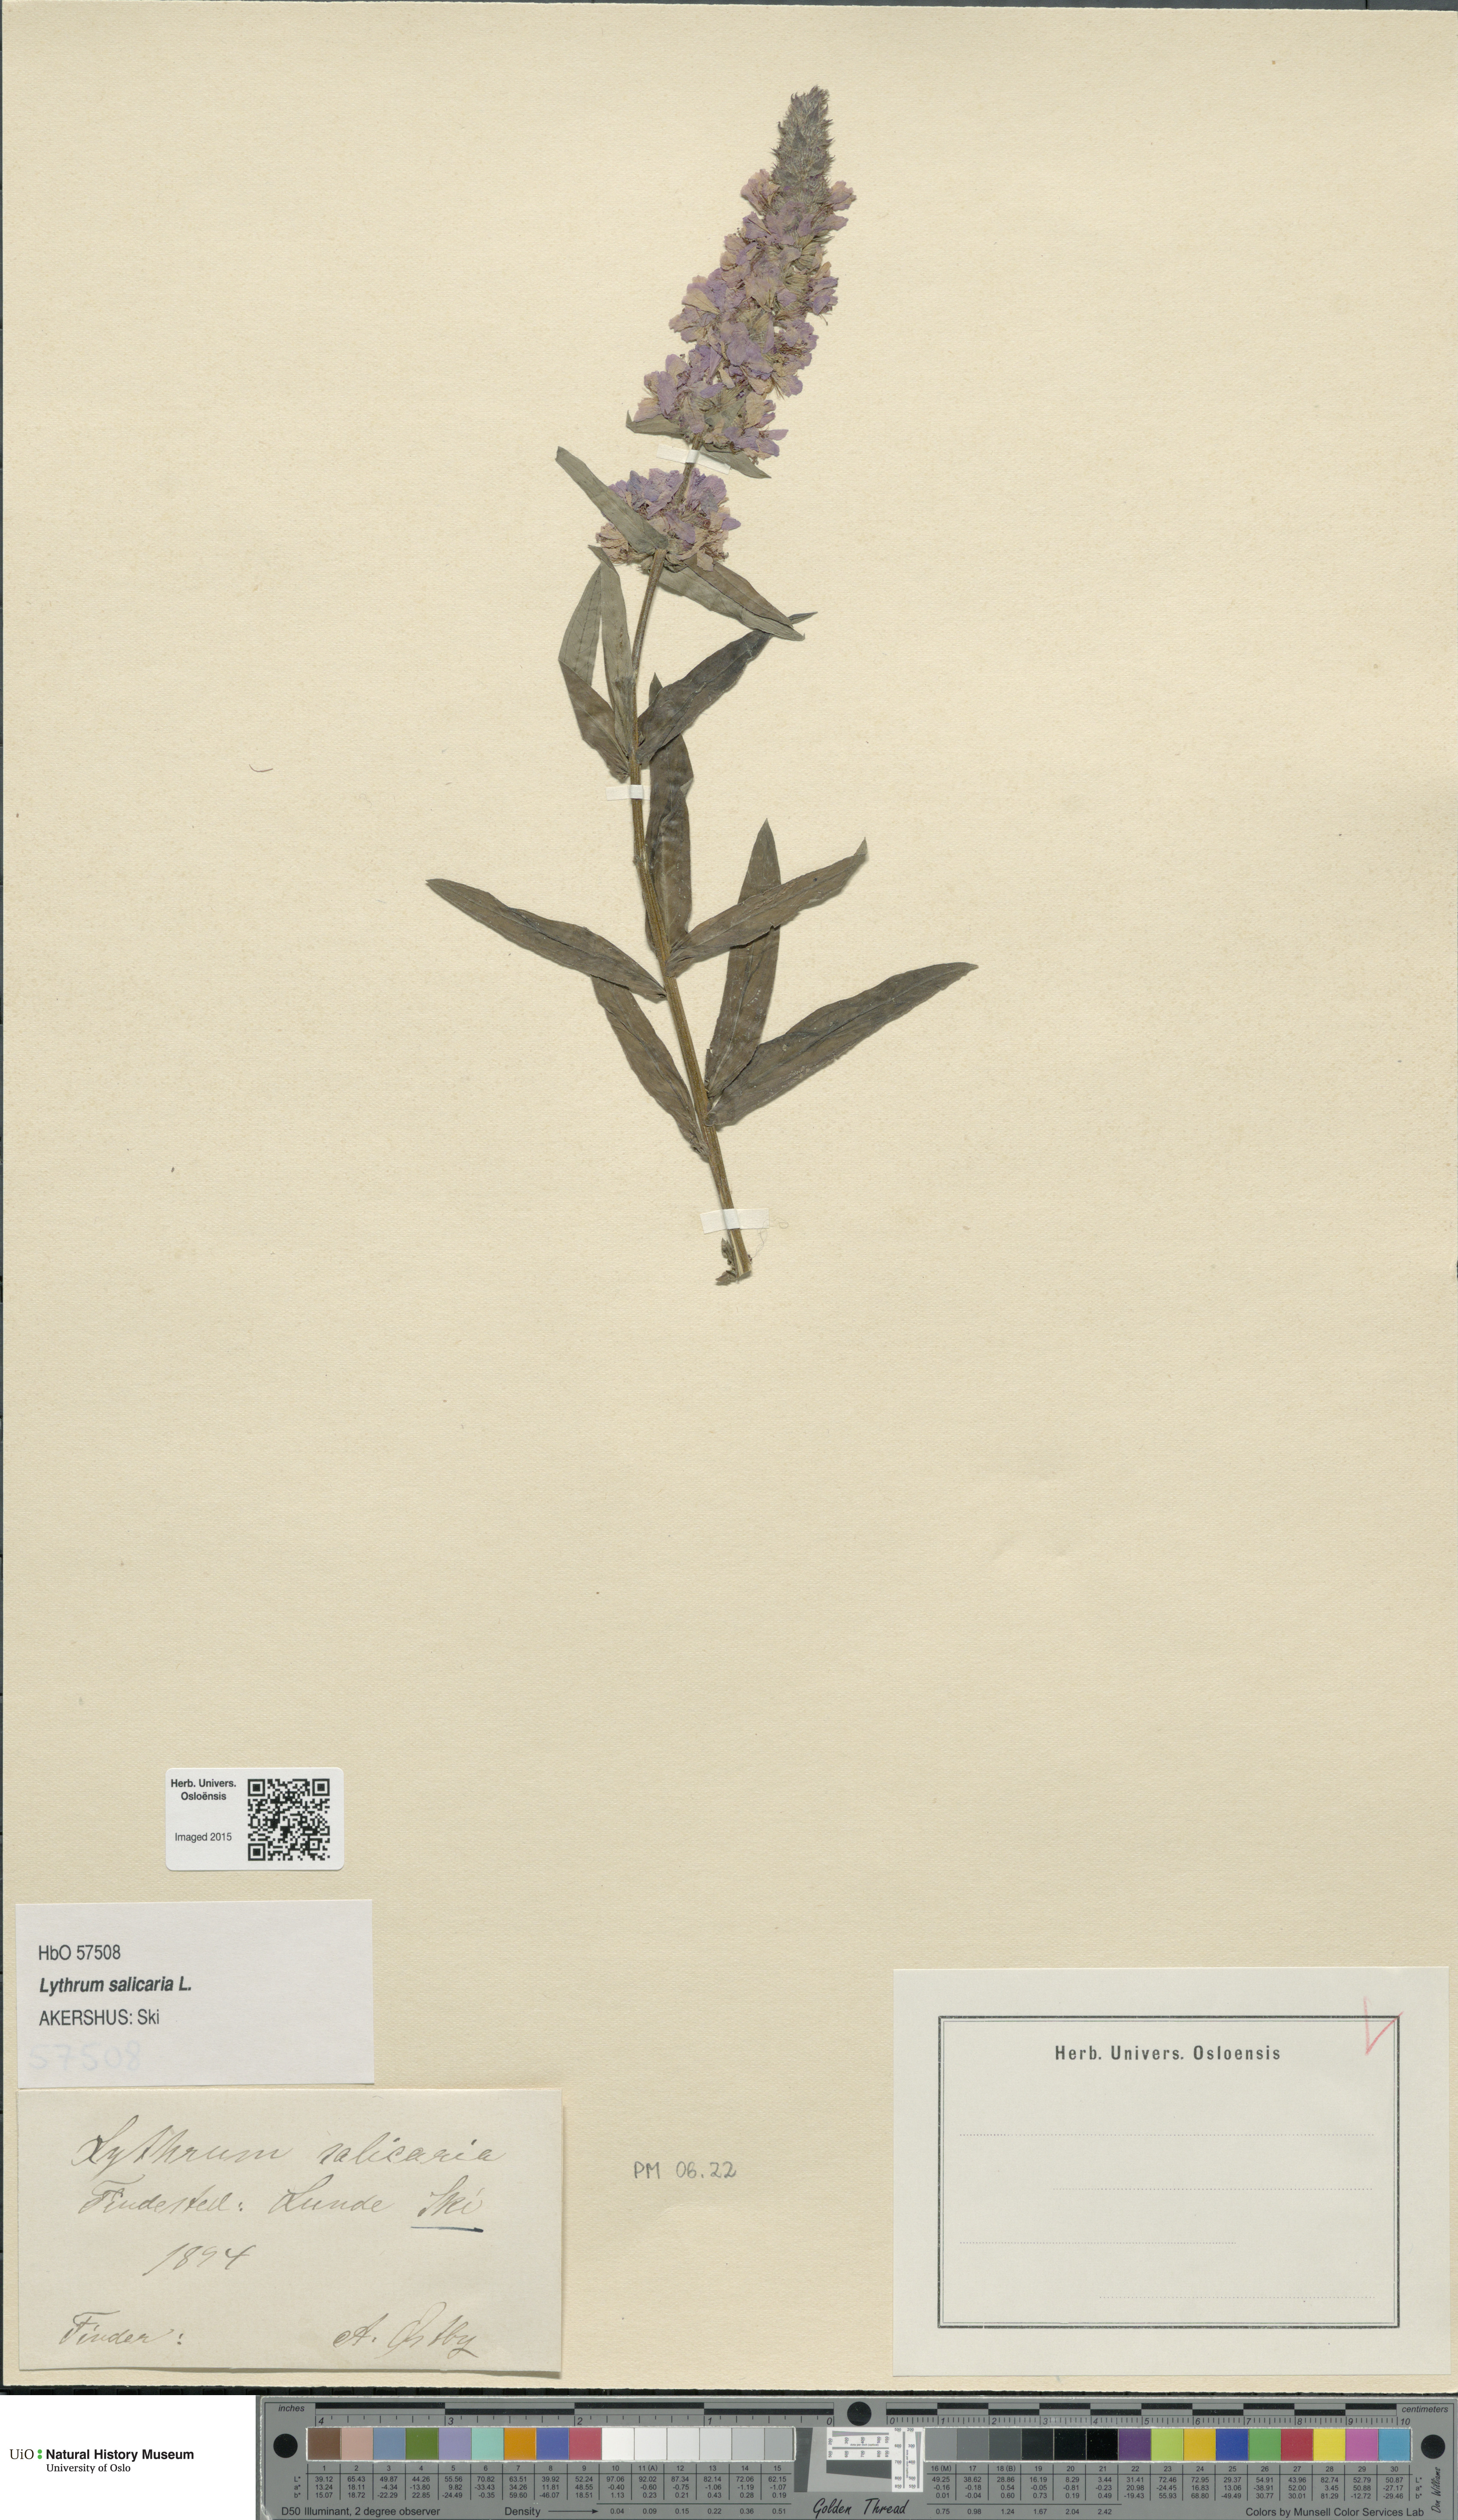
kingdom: Plantae
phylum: Tracheophyta
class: Magnoliopsida
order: Myrtales
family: Lythraceae
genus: Lythrum
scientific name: Lythrum salicaria
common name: Purple loosestrife
